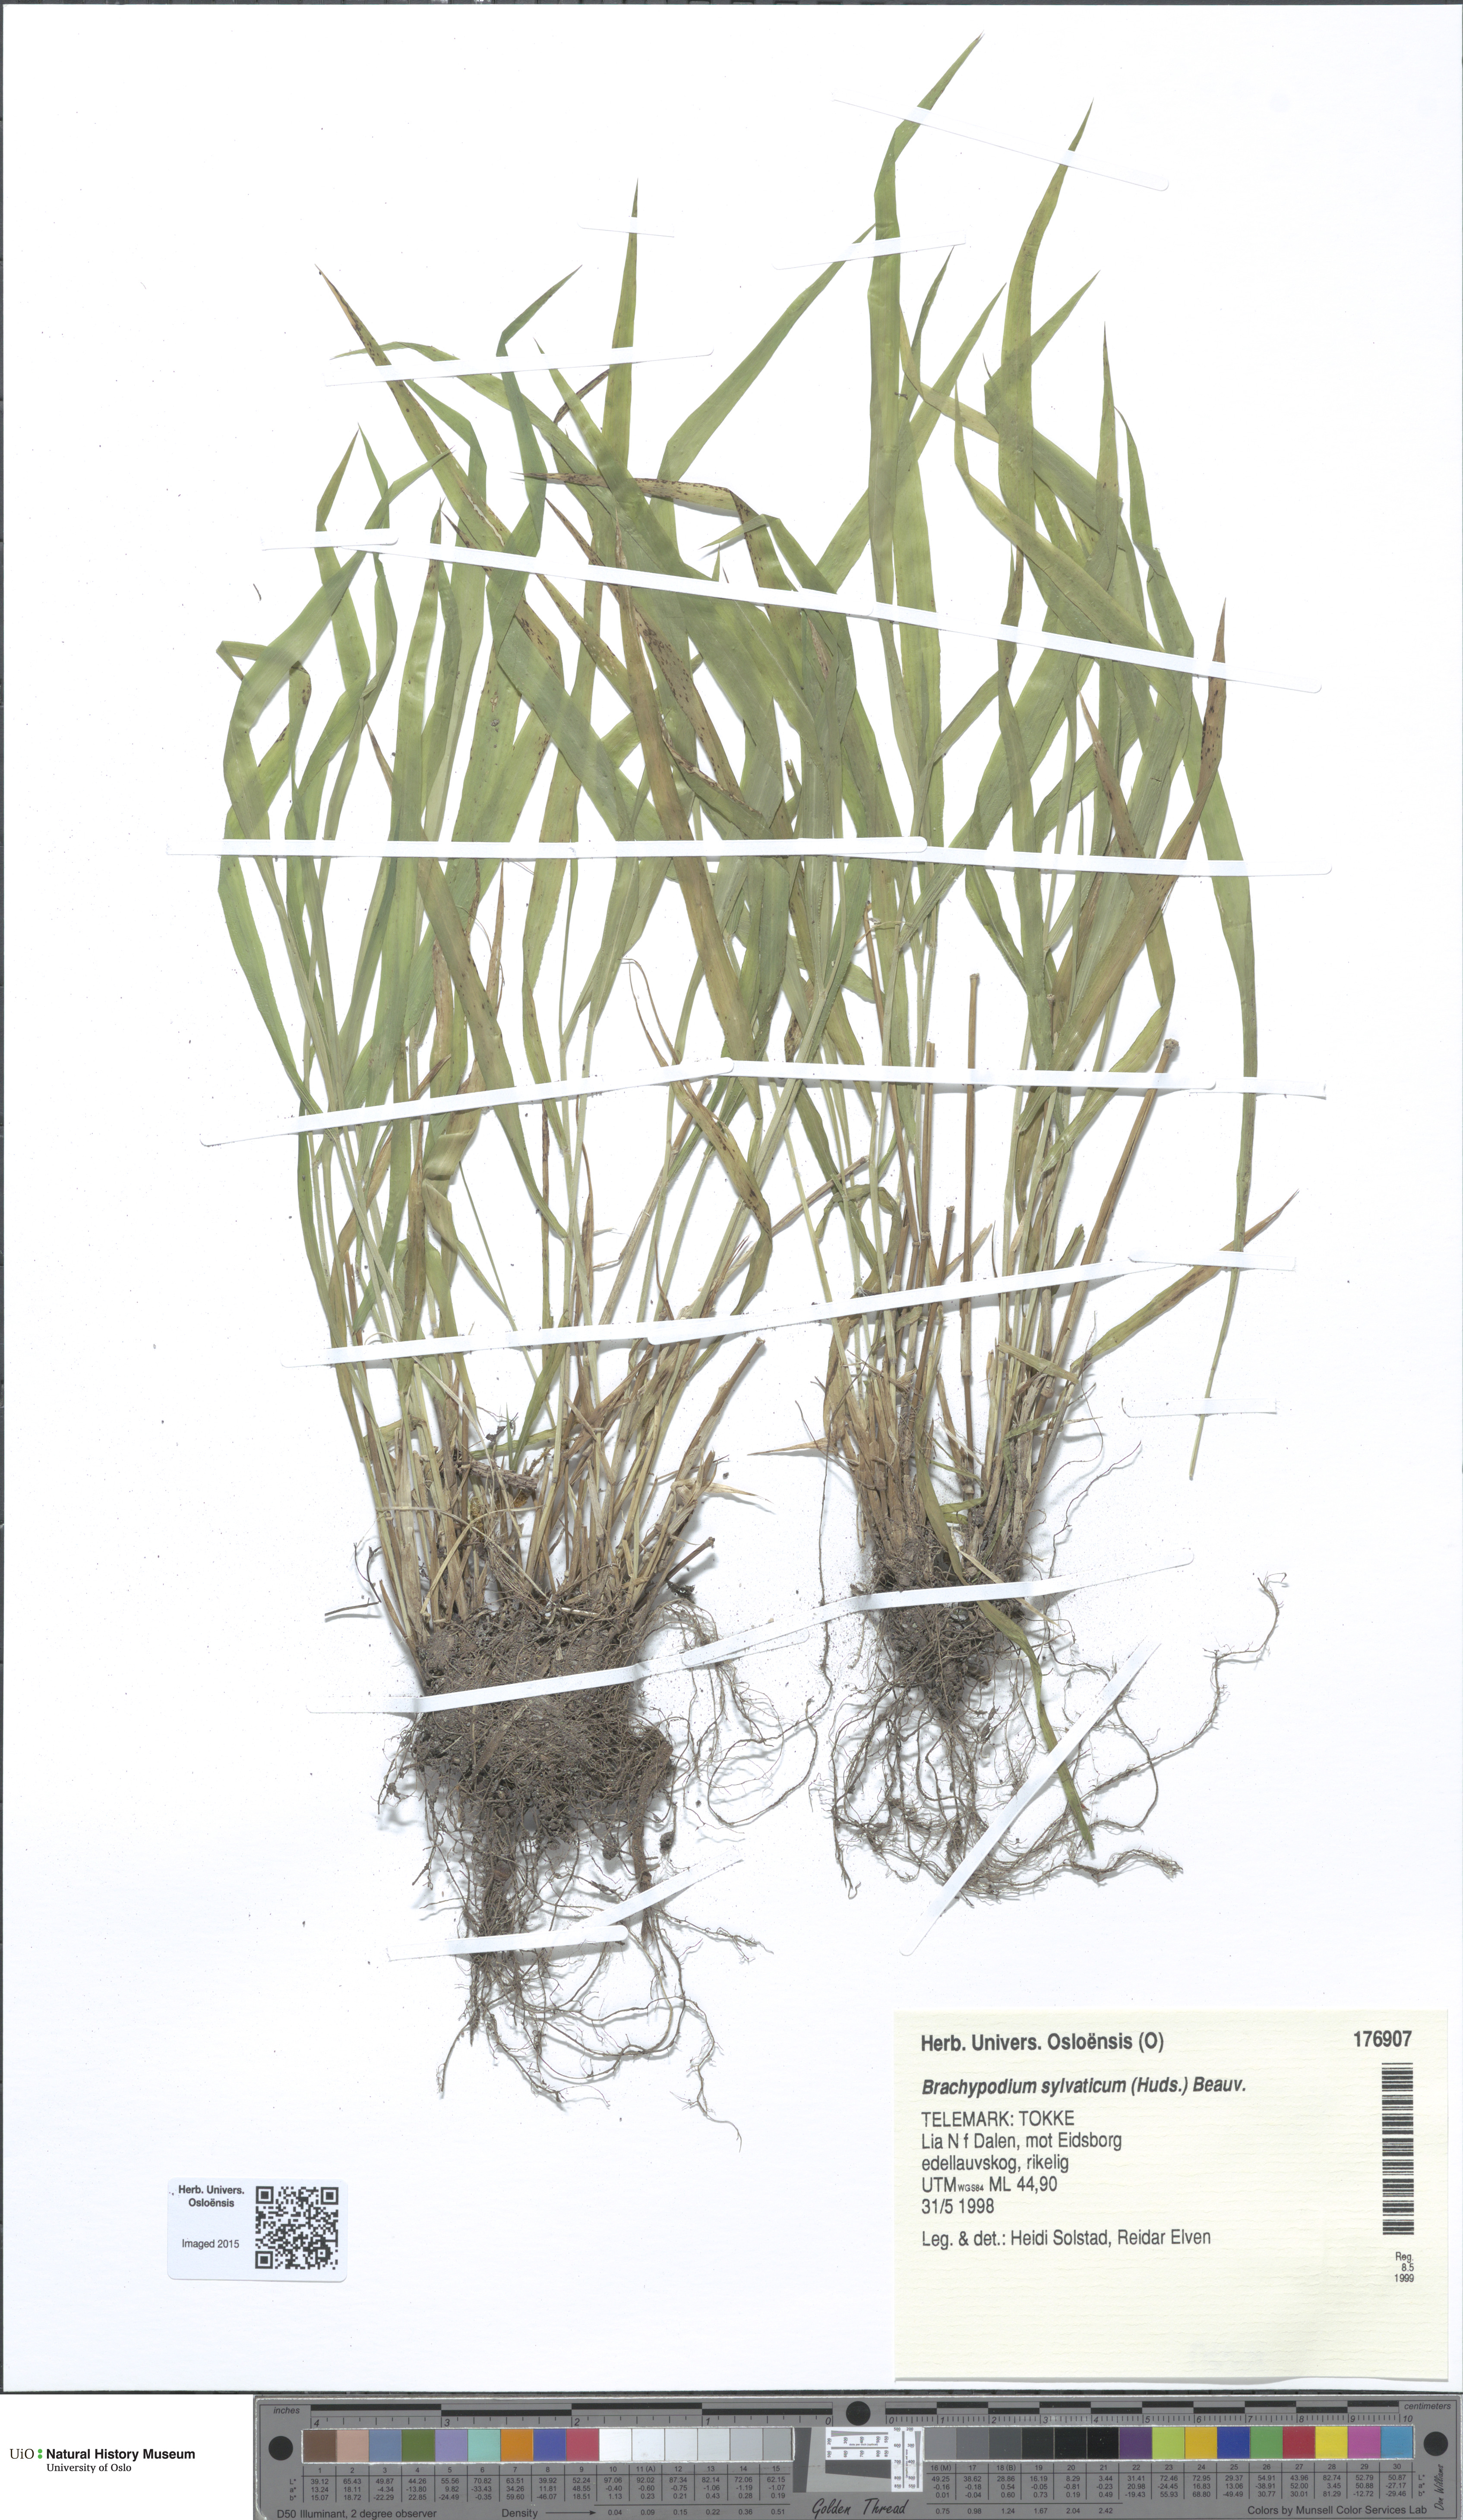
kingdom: Plantae
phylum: Tracheophyta
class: Liliopsida
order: Poales
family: Poaceae
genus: Brachypodium
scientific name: Brachypodium sylvaticum
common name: False-brome
